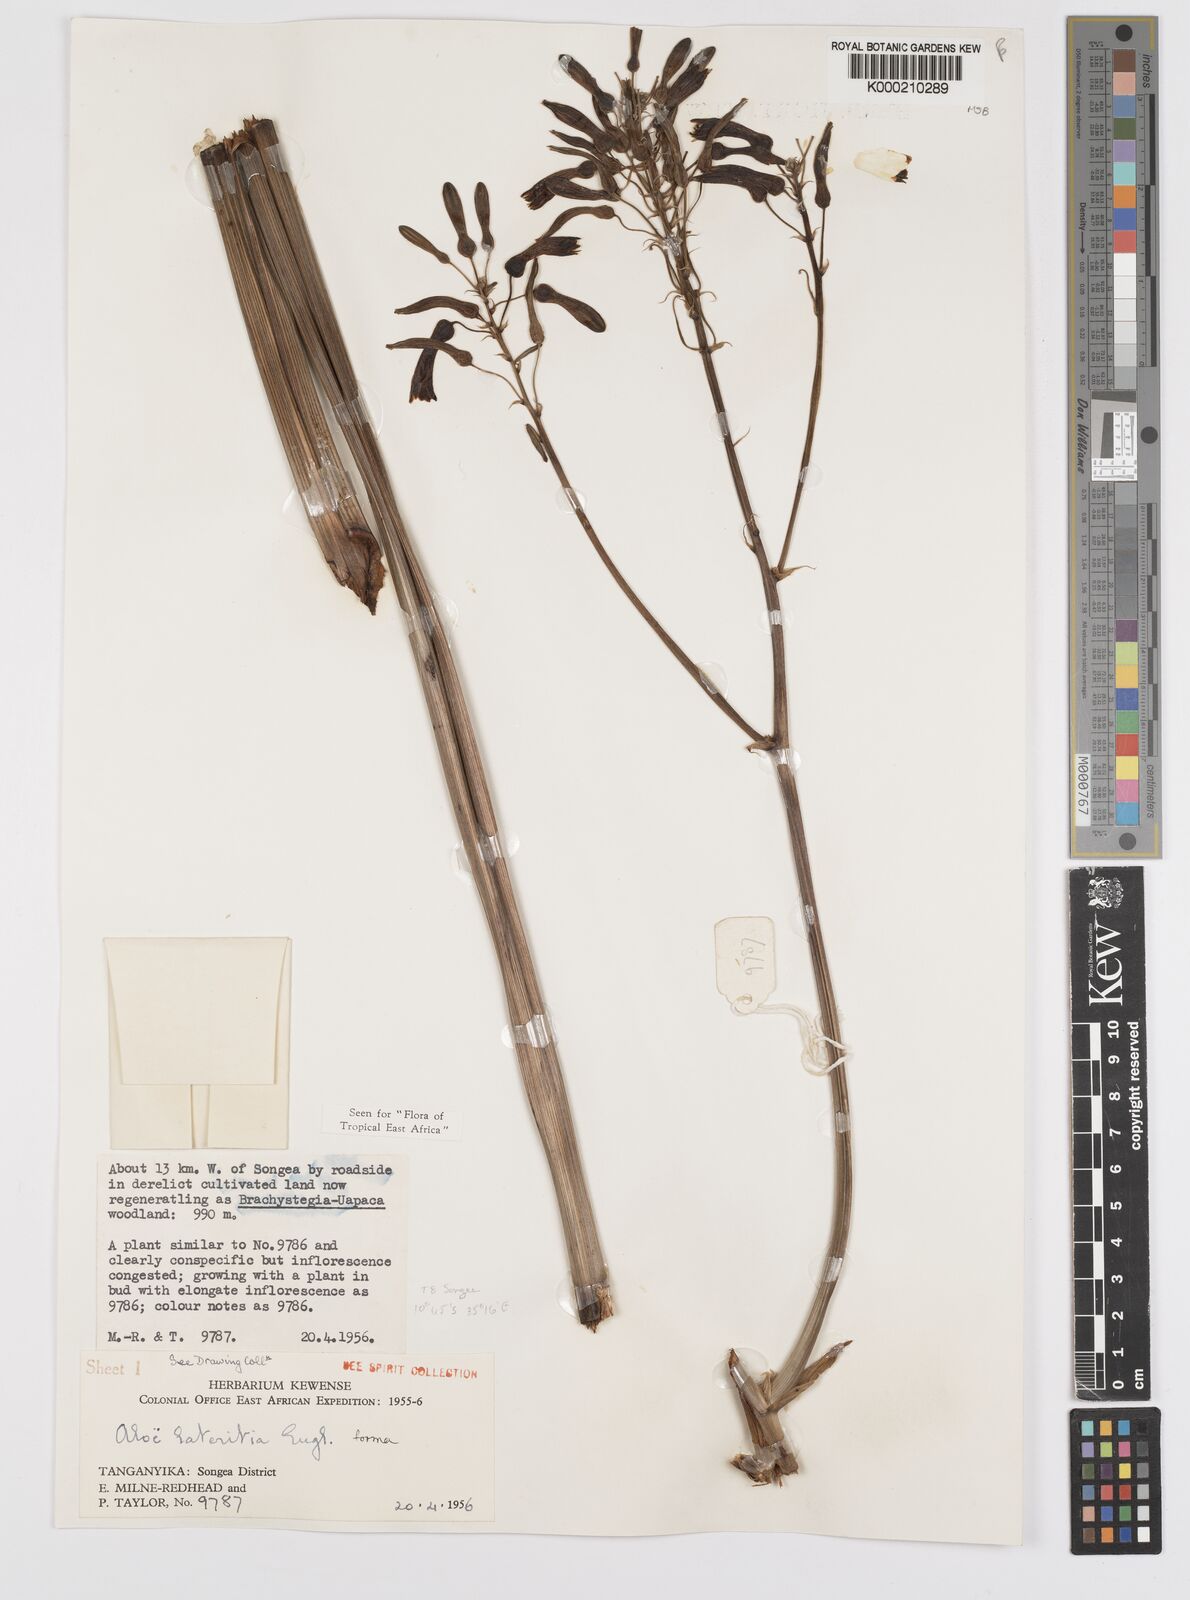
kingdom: Plantae
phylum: Tracheophyta
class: Liliopsida
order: Asparagales
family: Asphodelaceae
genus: Aloe
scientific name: Aloe lateritia
